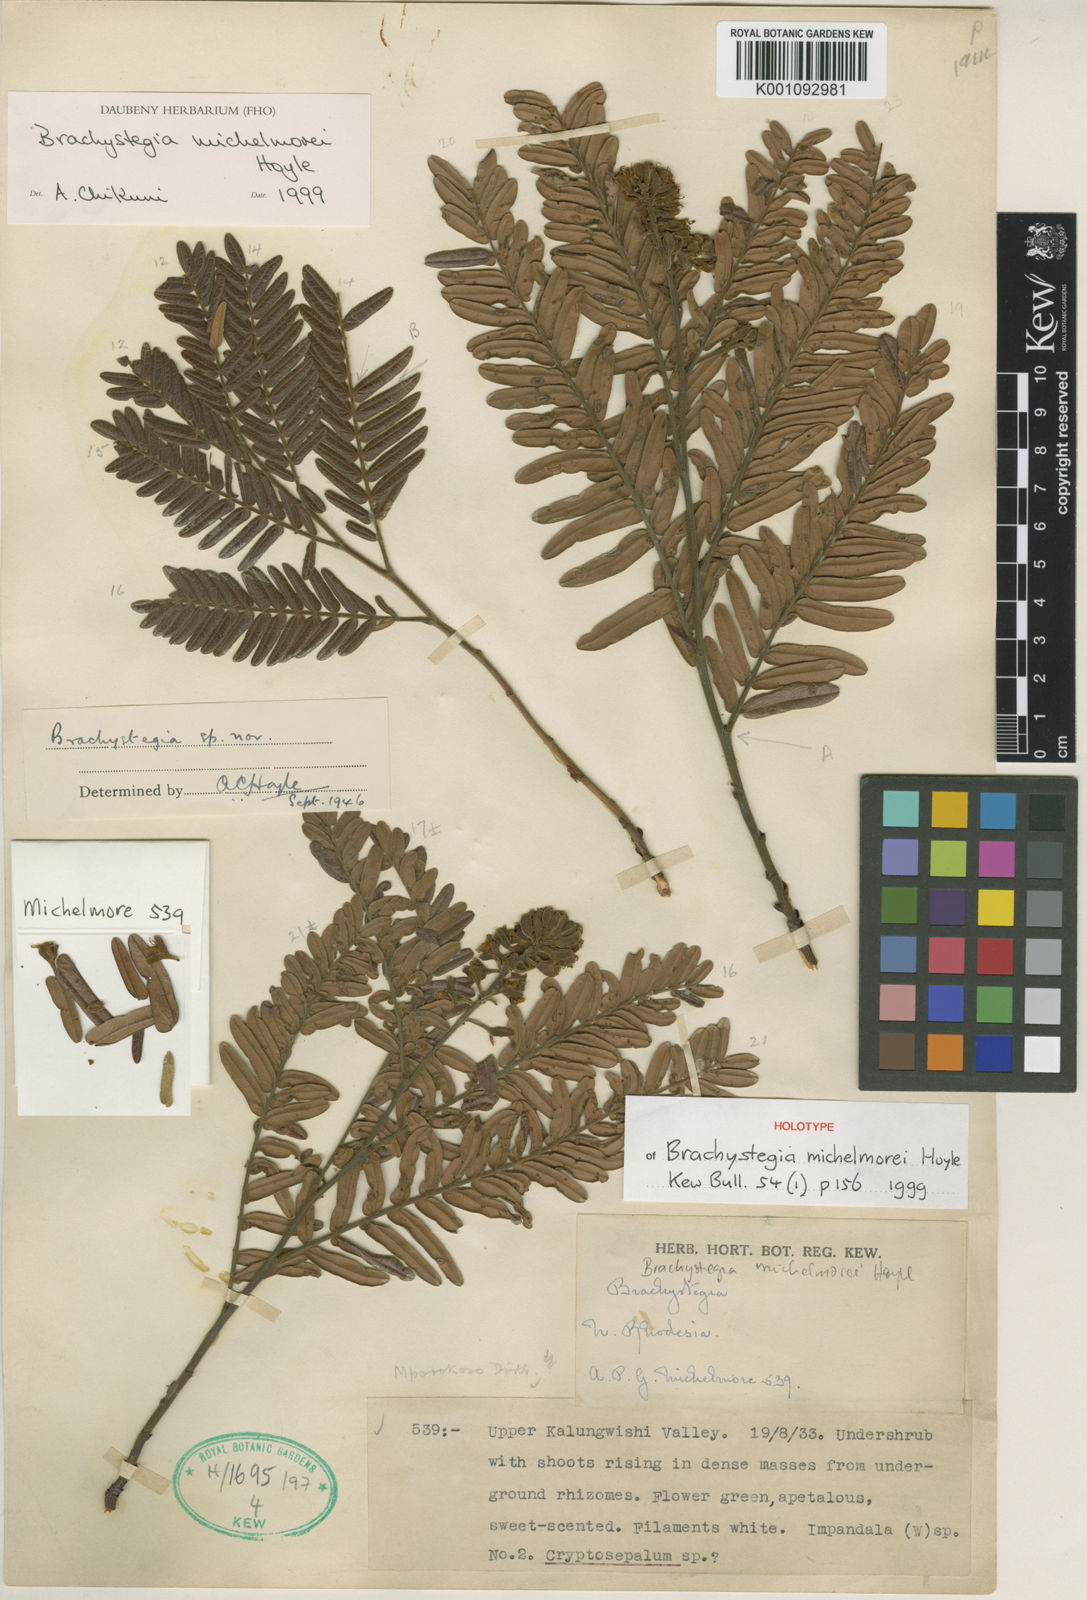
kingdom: Plantae
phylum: Tracheophyta
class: Magnoliopsida
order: Fabales
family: Fabaceae
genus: Brachystegia
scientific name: Brachystegia michelmorei
